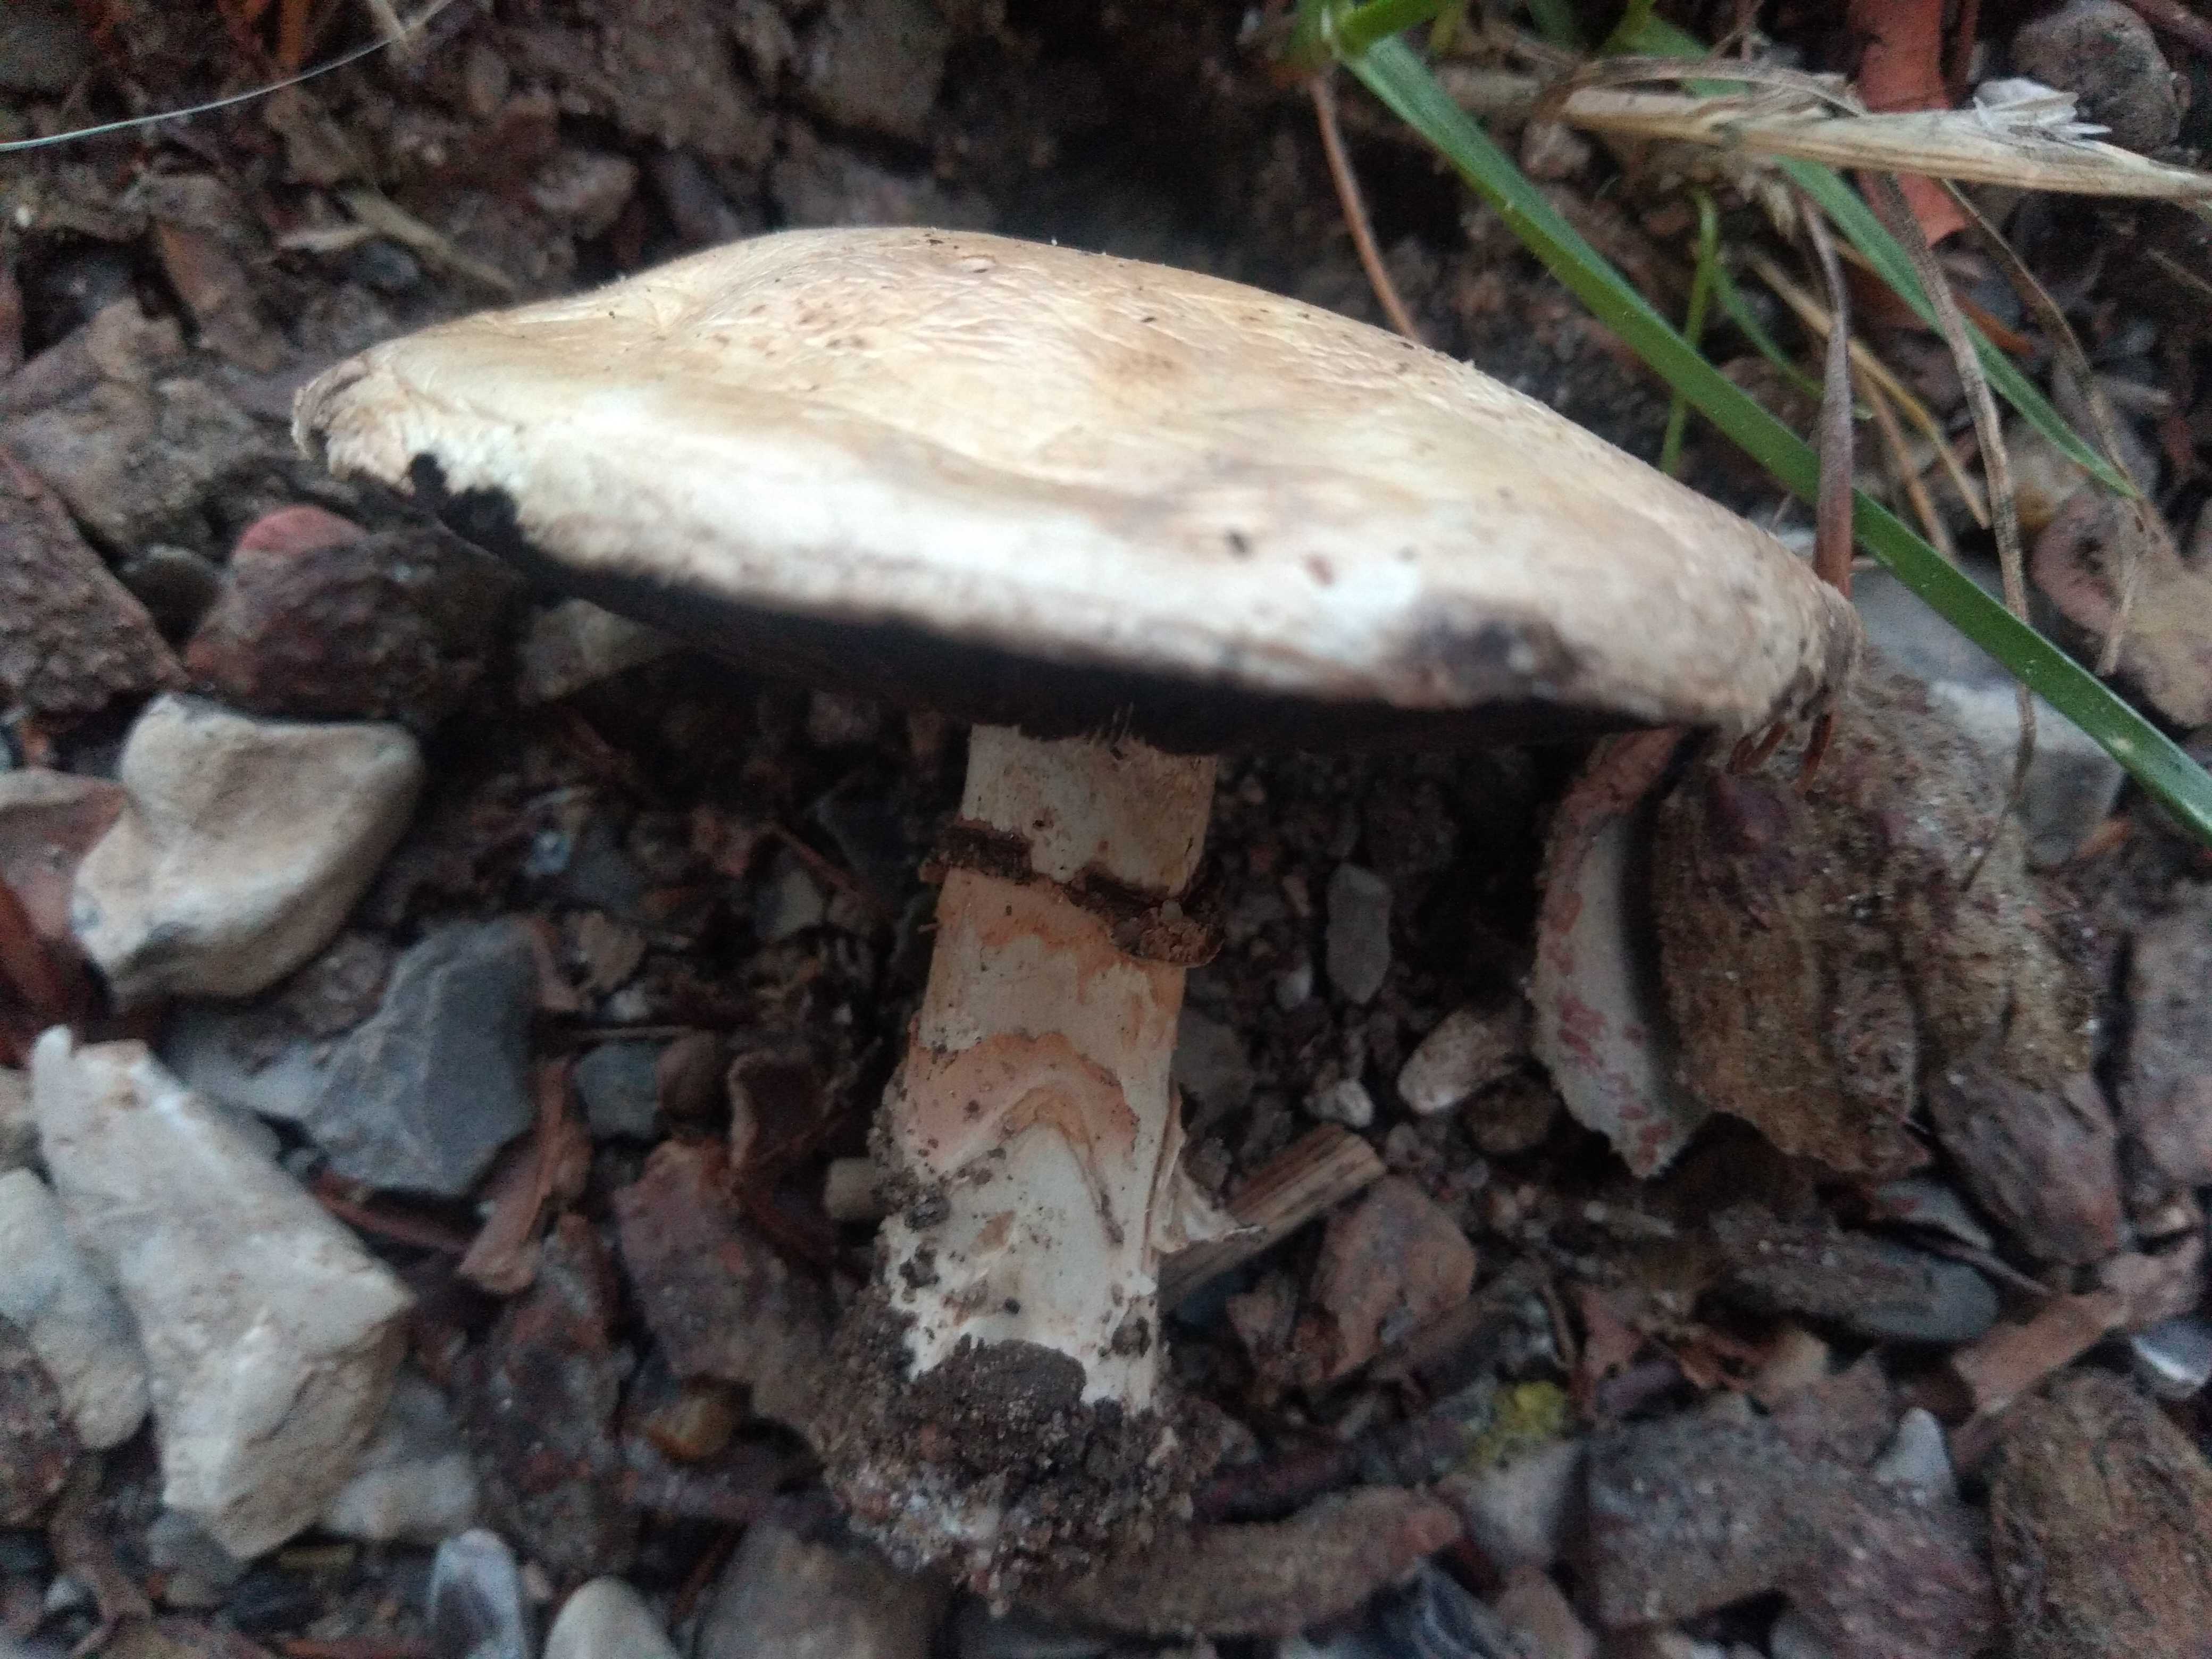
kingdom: Fungi
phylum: Basidiomycota
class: Agaricomycetes
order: Agaricales
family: Agaricaceae
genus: Agaricus
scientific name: Agaricus
